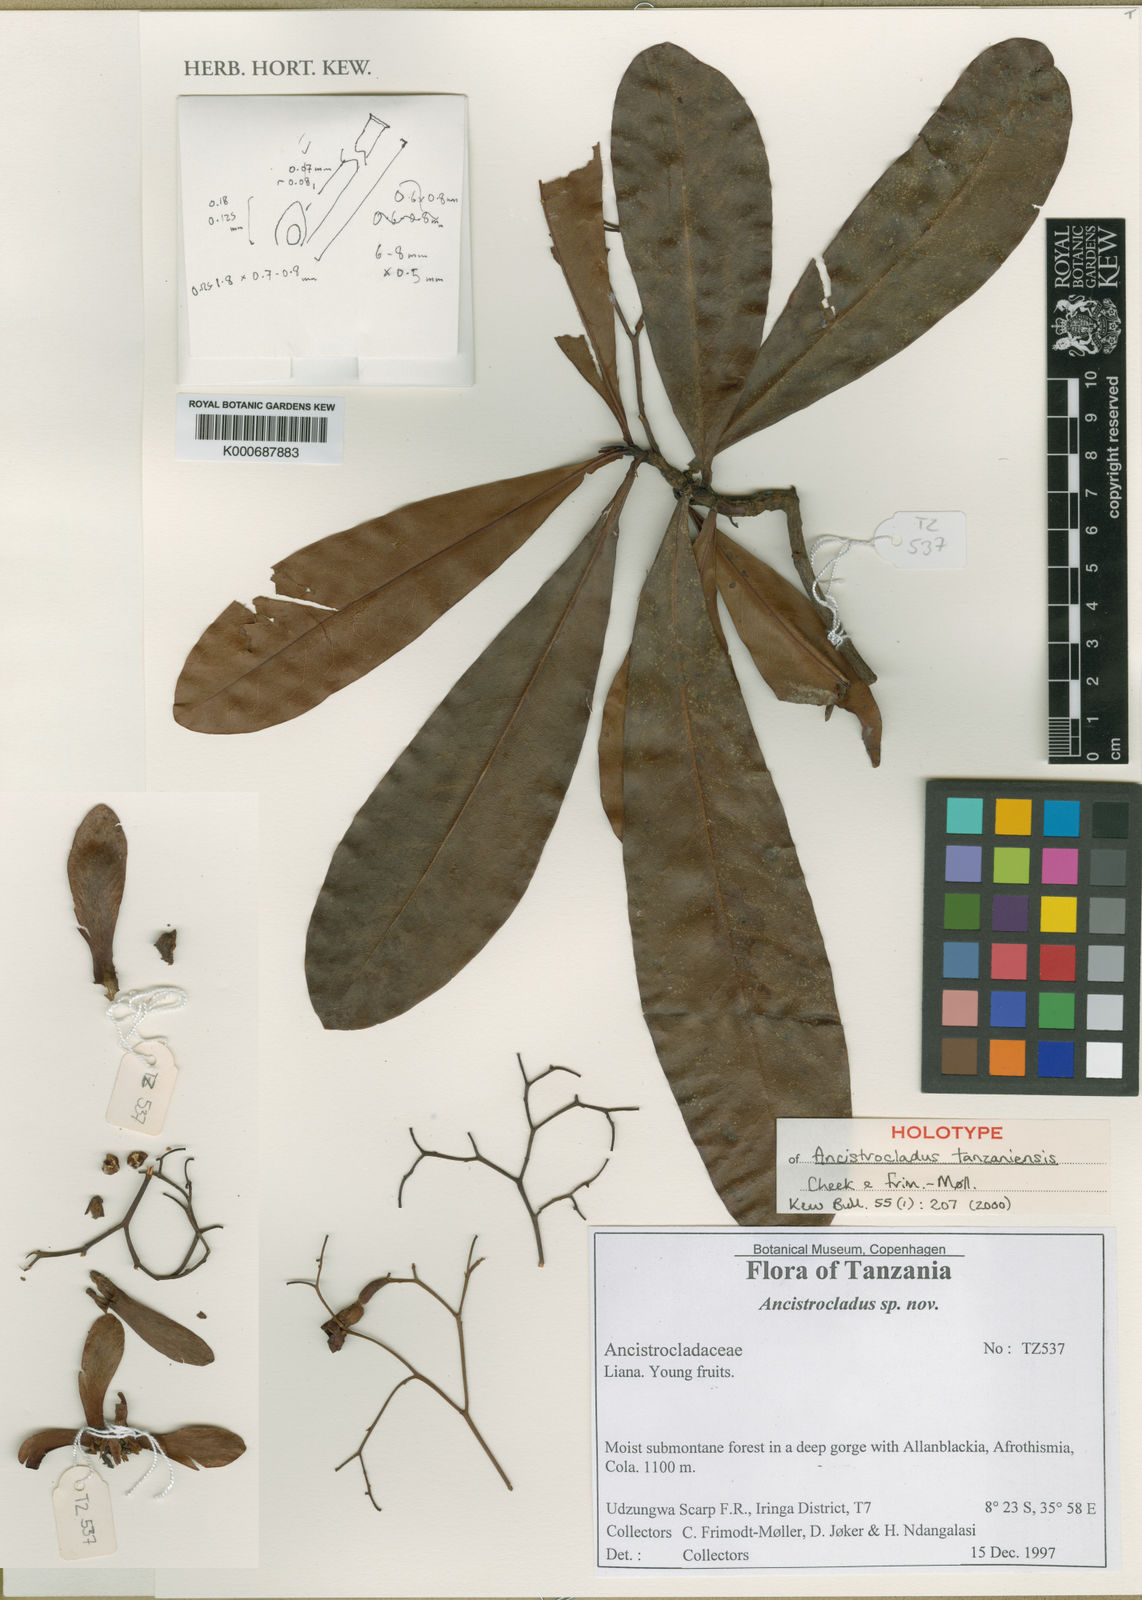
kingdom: Plantae
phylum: Tracheophyta
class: Magnoliopsida
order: Caryophyllales
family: Ancistrocladaceae
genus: Ancistrocladus
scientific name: Ancistrocladus
